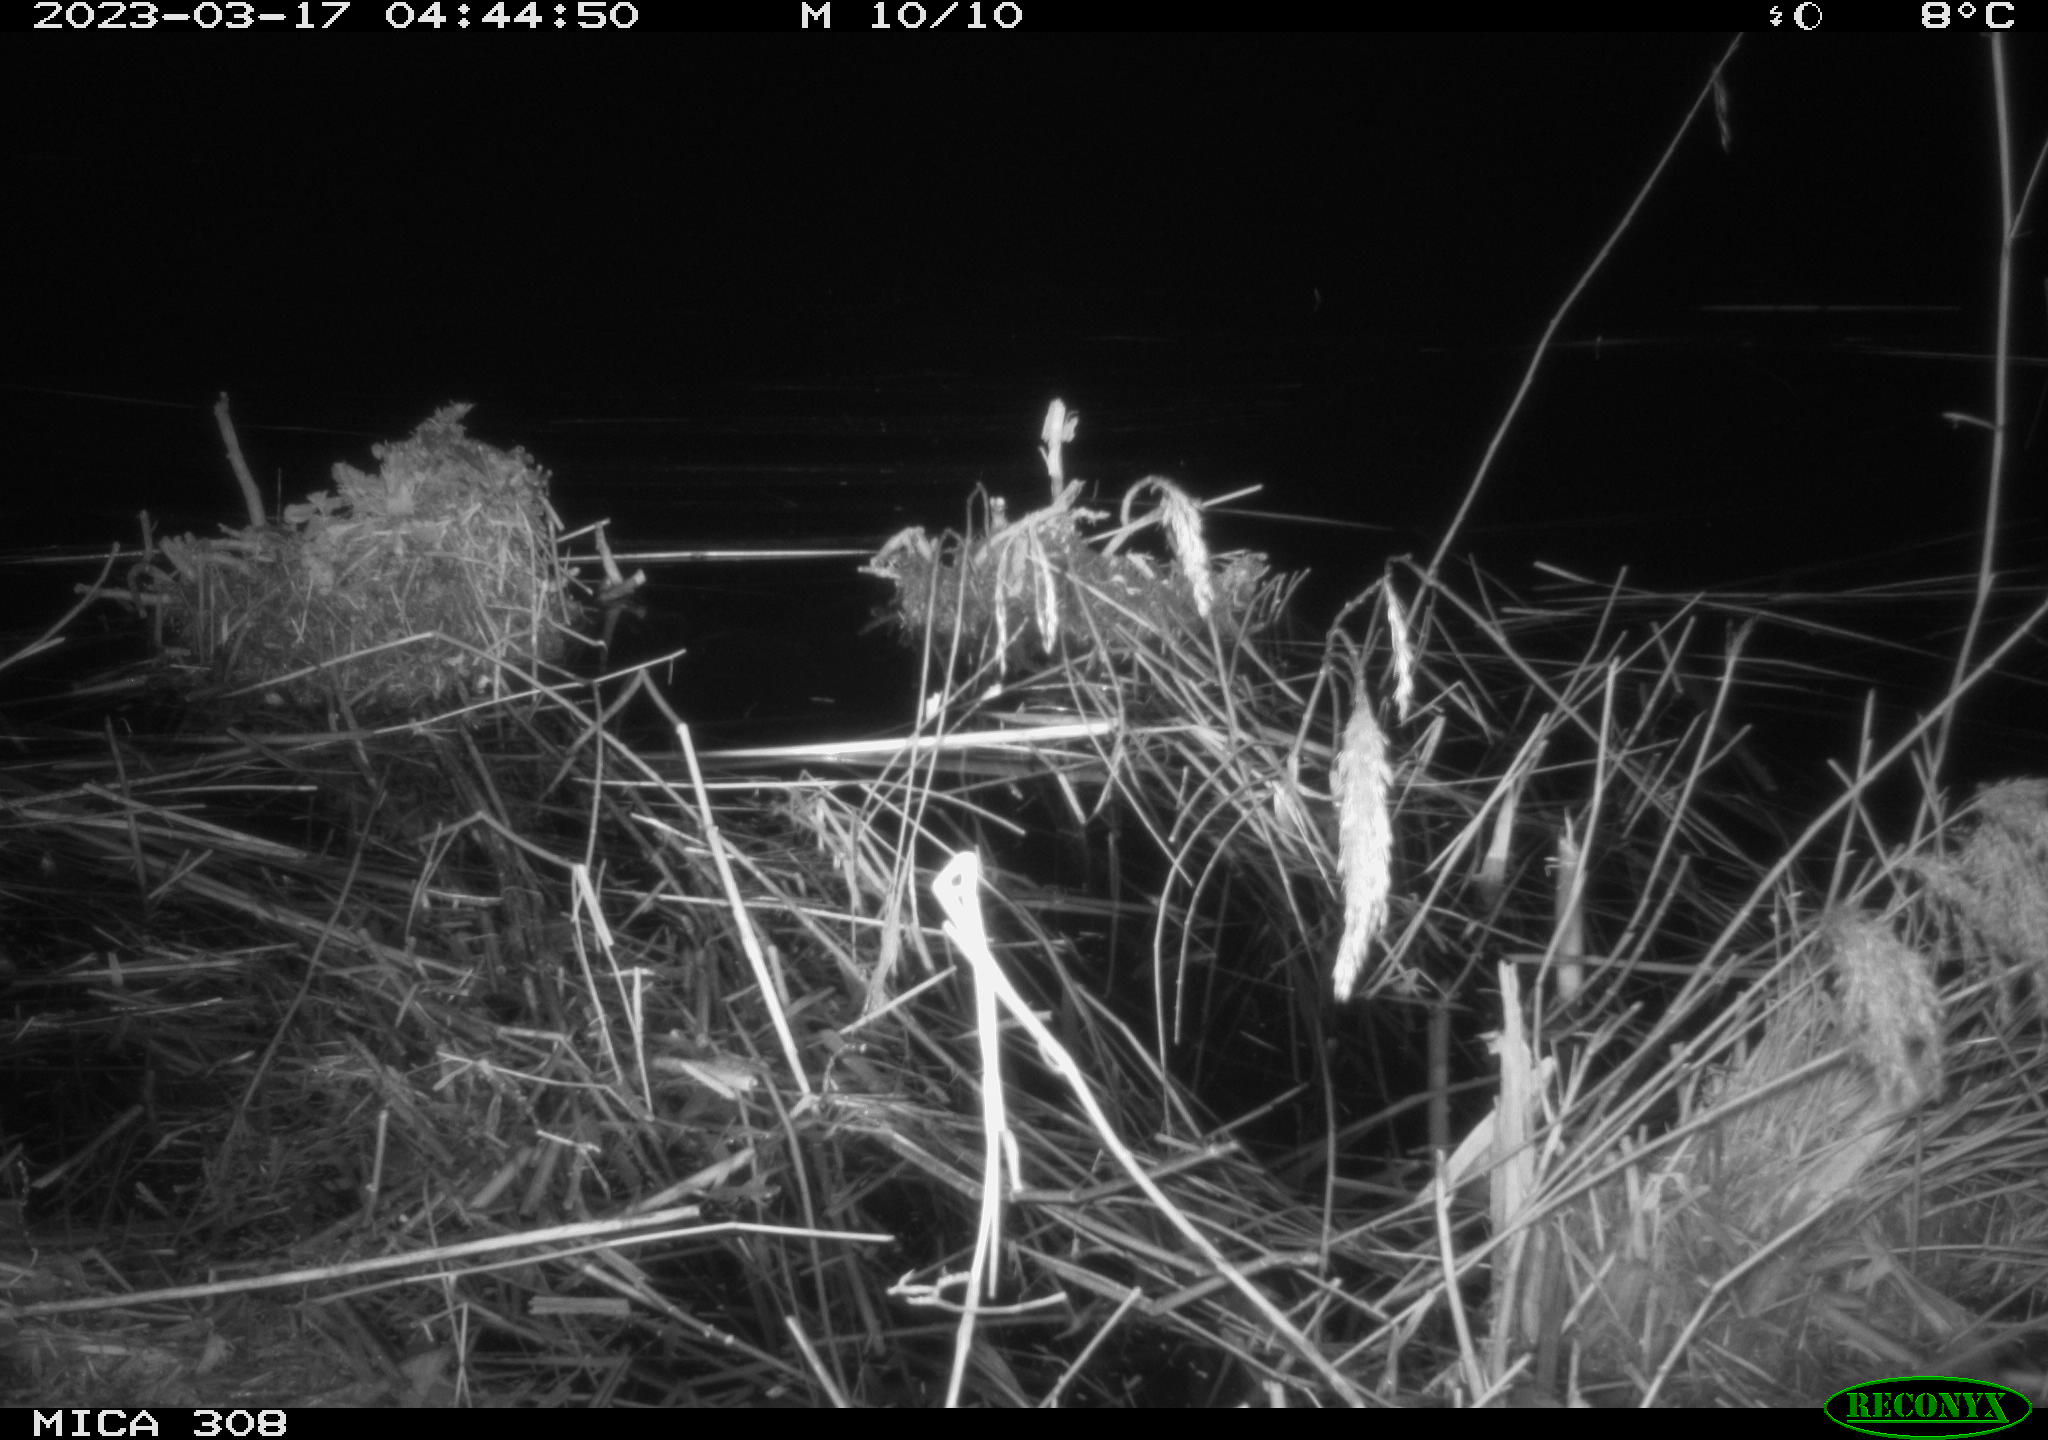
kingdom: Animalia
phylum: Chordata
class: Aves
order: Anseriformes
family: Anatidae
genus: Anas
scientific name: Anas
